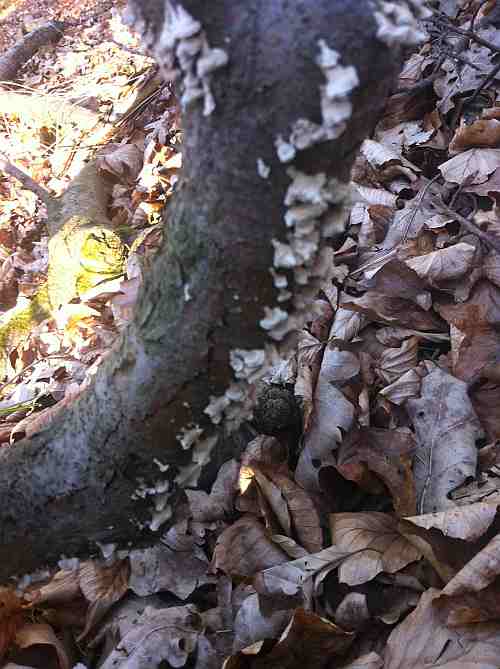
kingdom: Fungi
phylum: Basidiomycota
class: Agaricomycetes
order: Amylocorticiales
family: Amylocorticiaceae
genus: Plicaturopsis
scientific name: Plicaturopsis crispa
